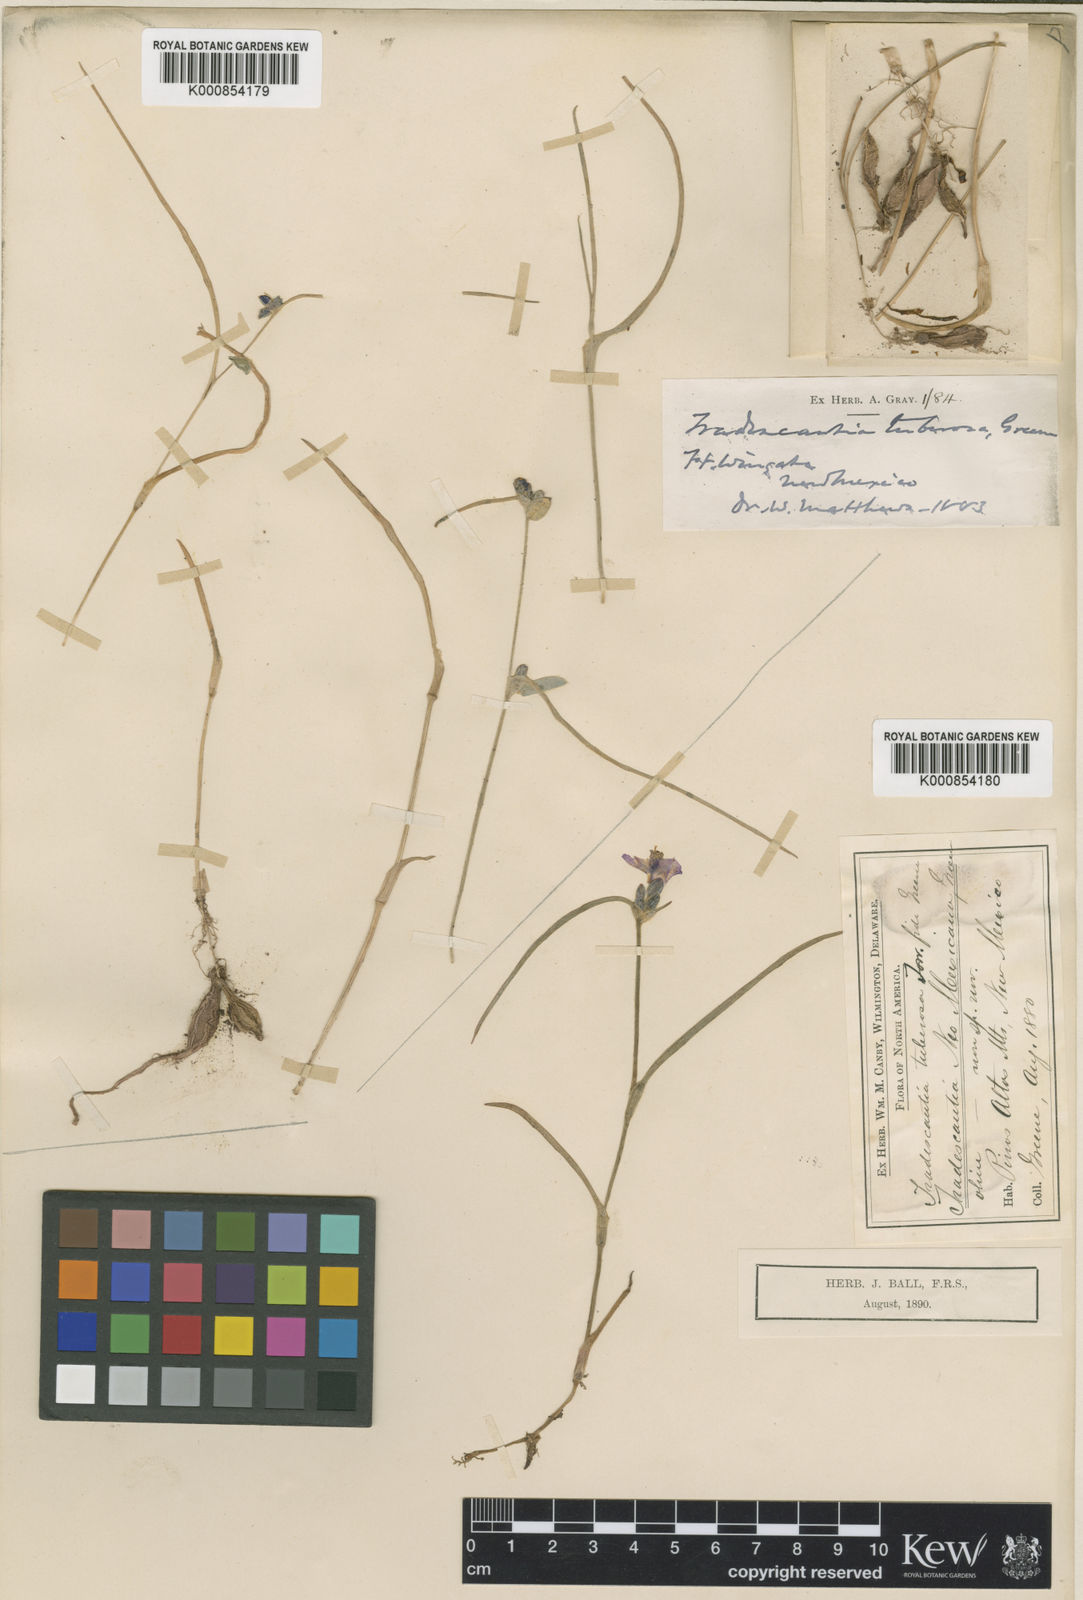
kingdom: Plantae
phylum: Tracheophyta
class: Liliopsida
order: Commelinales
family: Commelinaceae
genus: Tradescantia
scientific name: Tradescantia pinetorum
